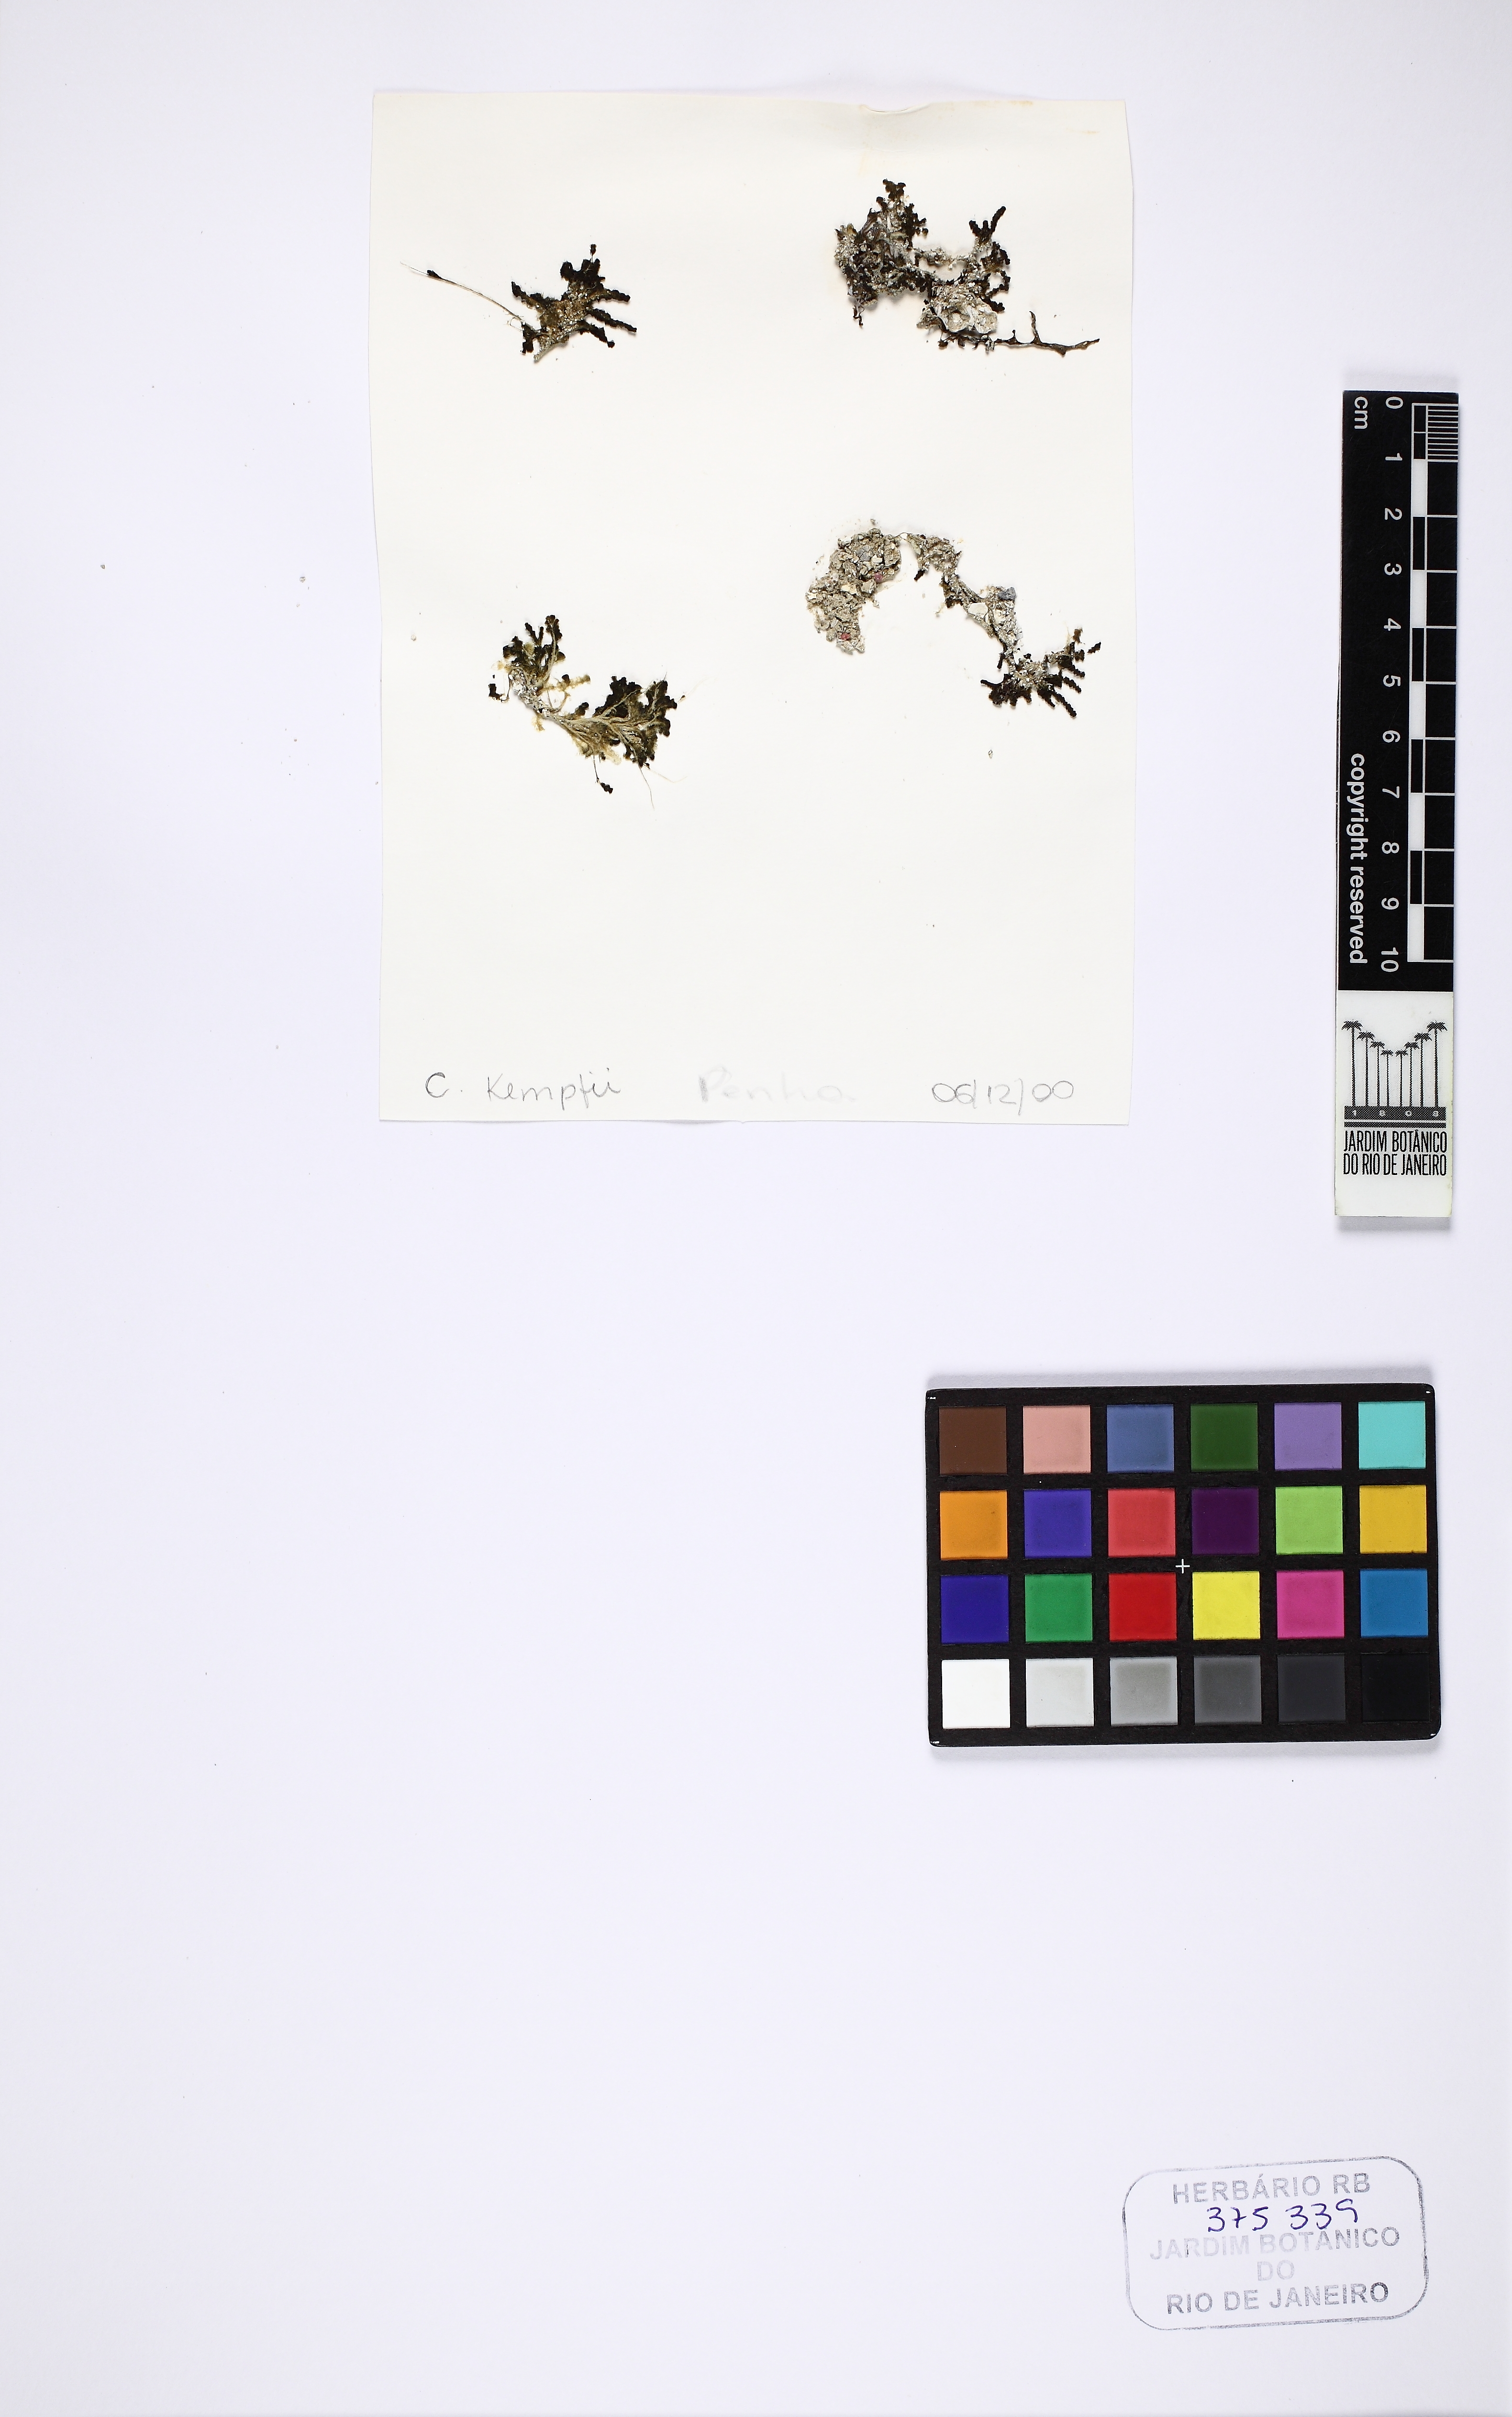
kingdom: Plantae
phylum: Chlorophyta
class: Ulvophyceae
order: Bryopsidales
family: Caulerpaceae
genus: Caulerpa
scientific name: Caulerpa kempfii
